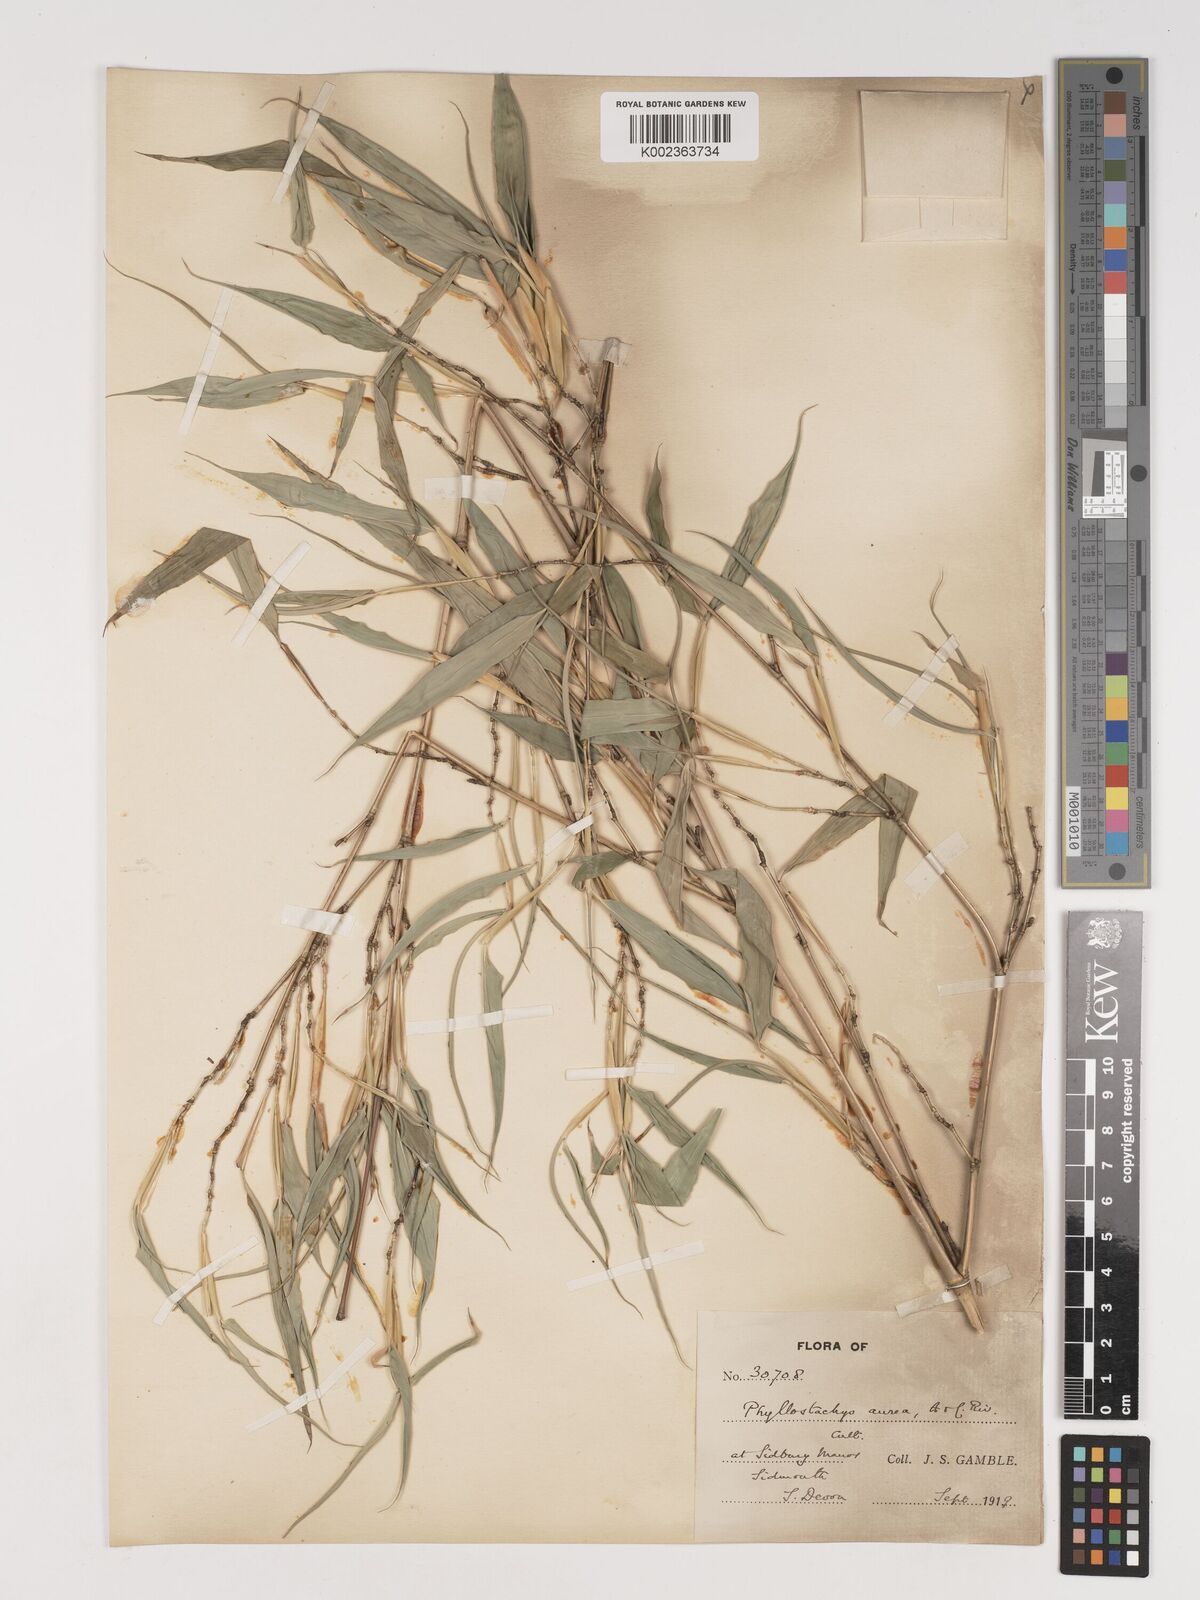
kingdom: Plantae
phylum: Tracheophyta
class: Liliopsida
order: Poales
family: Poaceae
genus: Phyllostachys
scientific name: Phyllostachys aurea
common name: Golden bamboo
